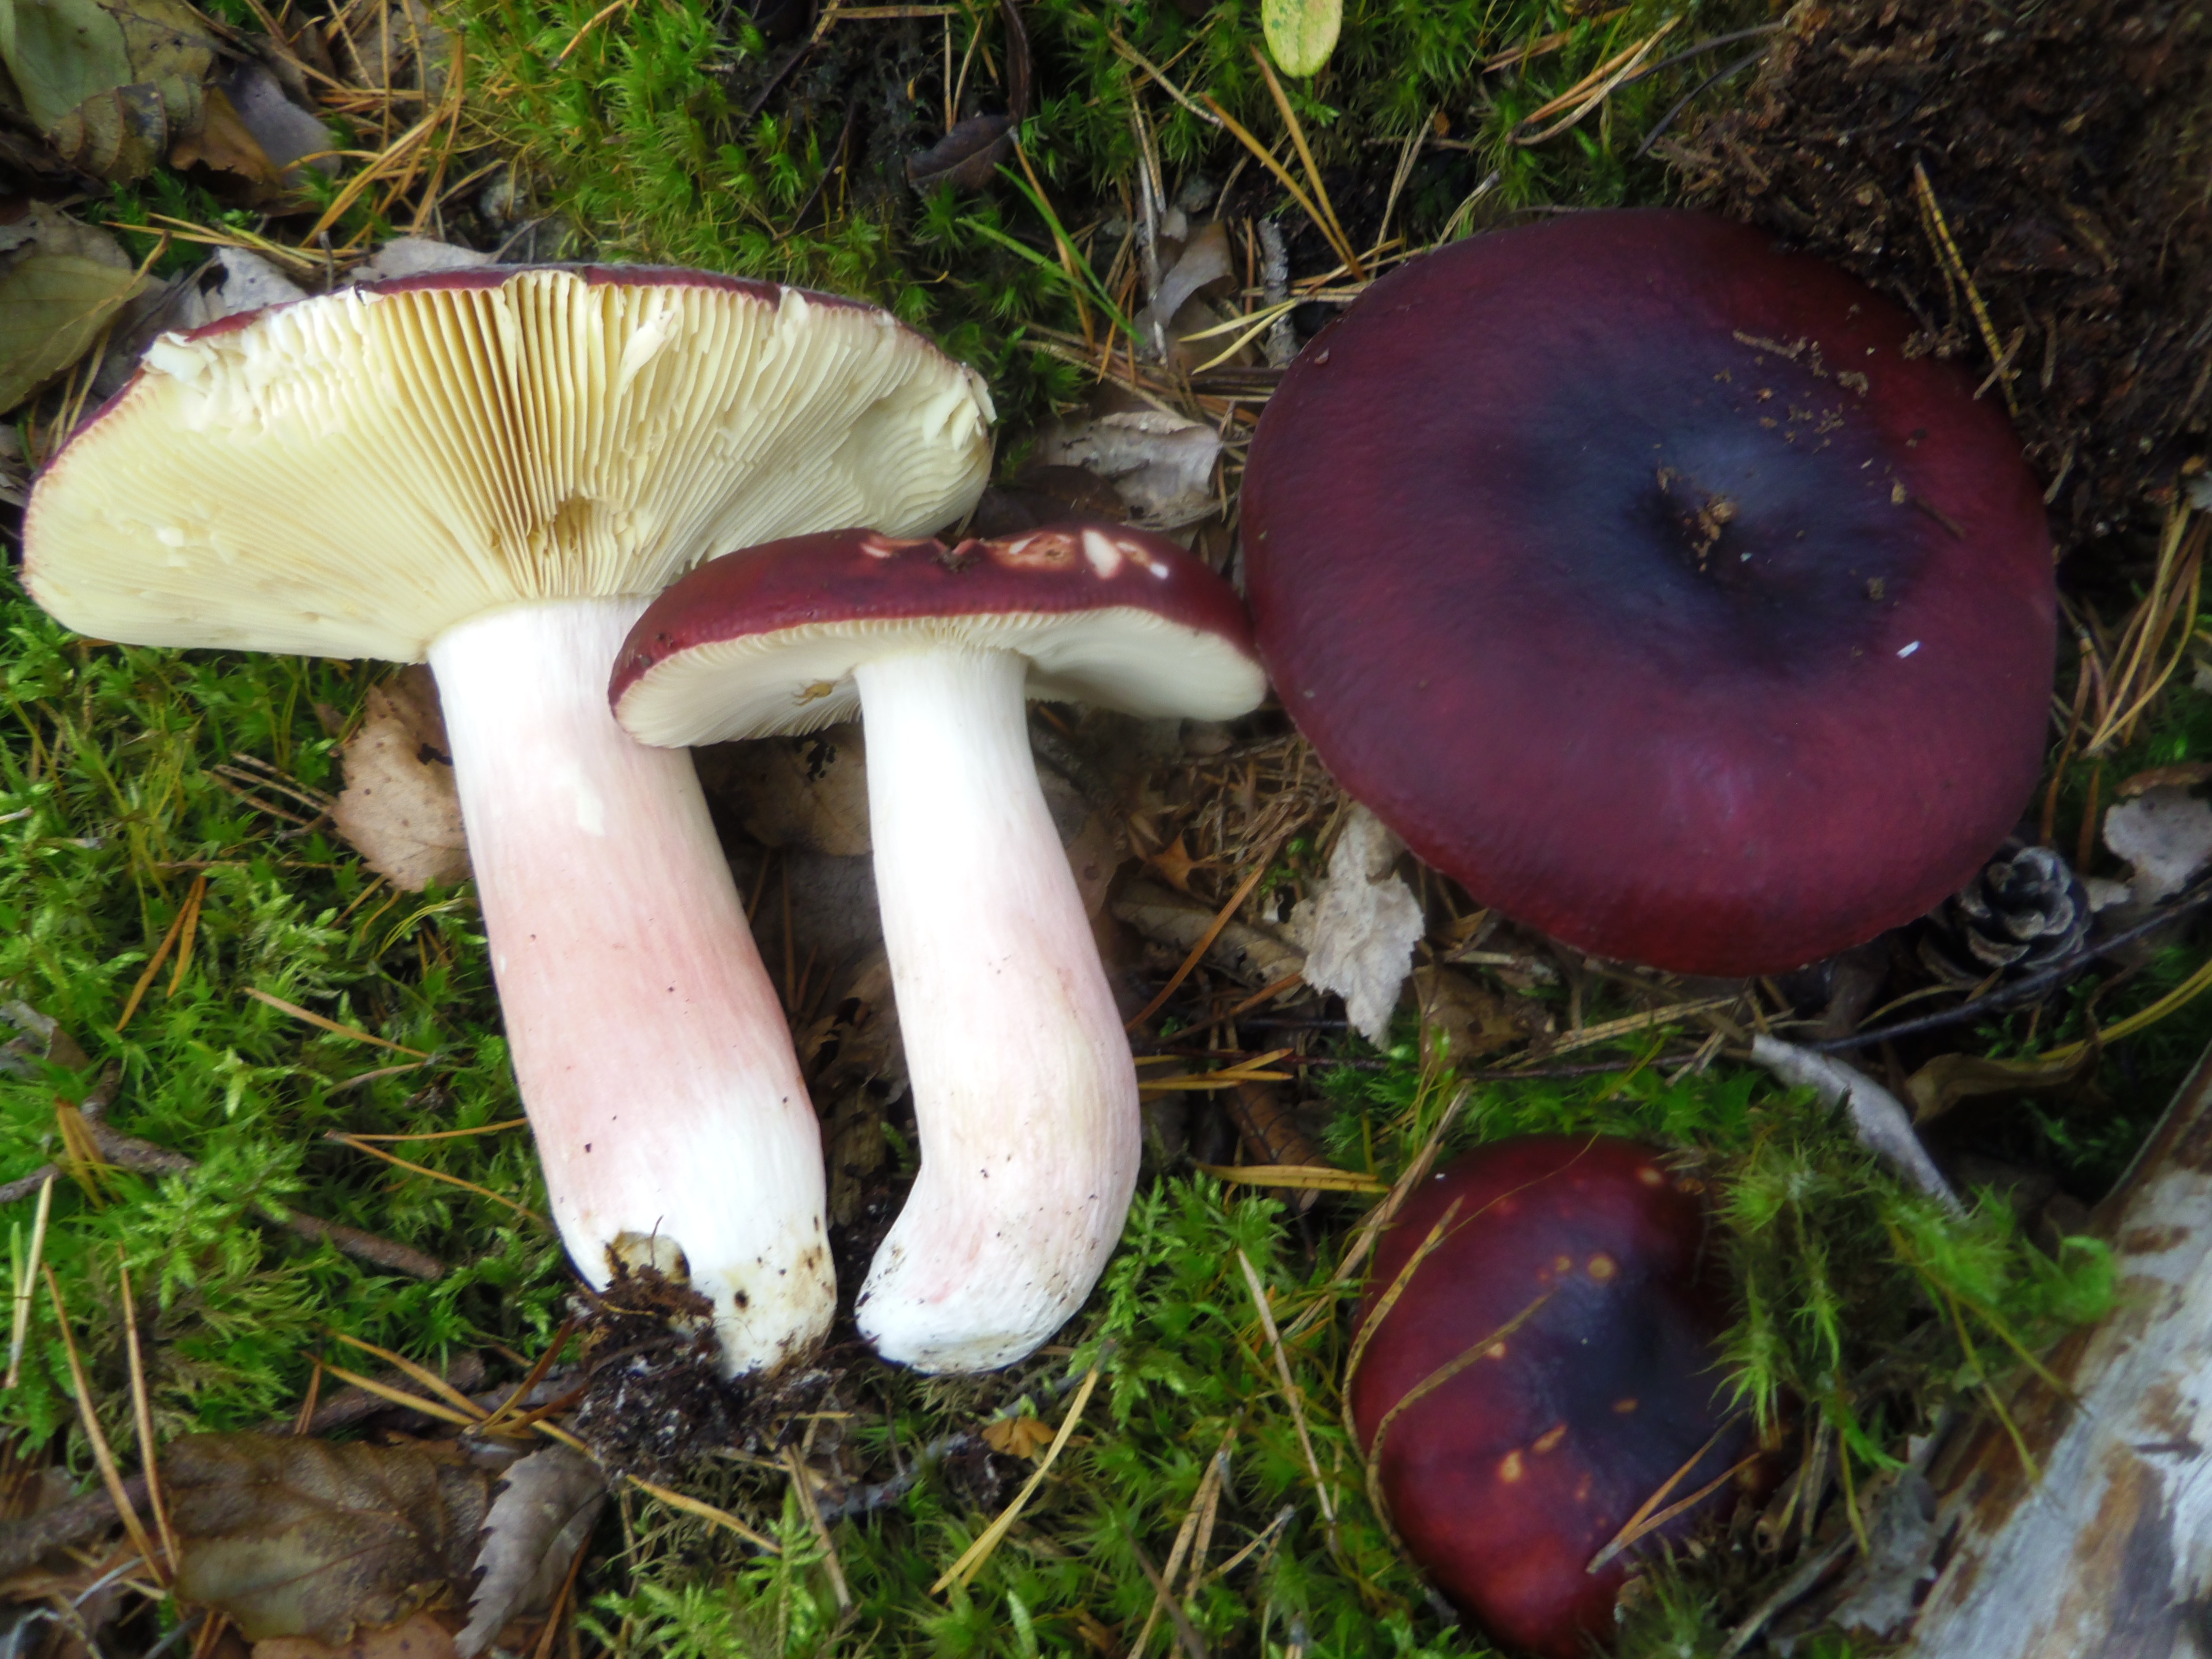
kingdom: Fungi
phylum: Basidiomycota
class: Agaricomycetes
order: Russulales
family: Russulaceae
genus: Russula
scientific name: Russula badia
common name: Burning brittlegill
